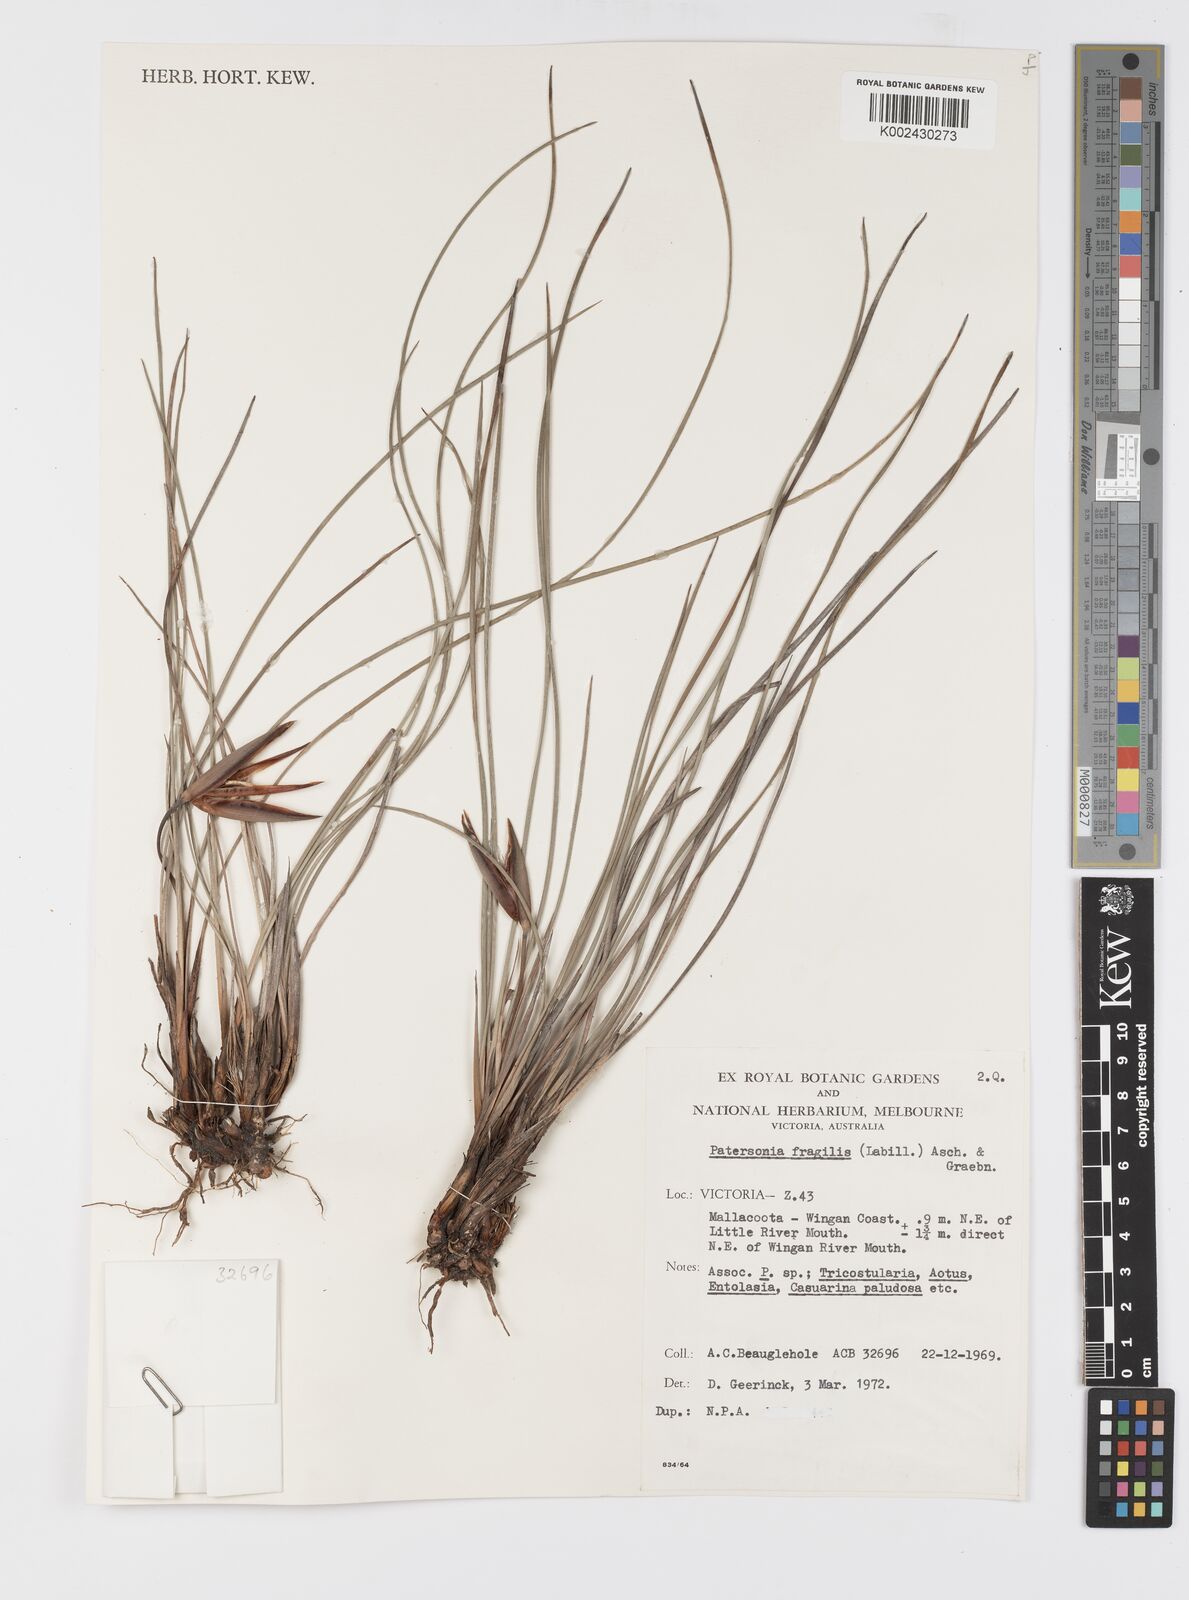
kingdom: Plantae
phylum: Tracheophyta
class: Liliopsida
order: Asparagales
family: Iridaceae
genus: Patersonia
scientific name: Patersonia fragilis
